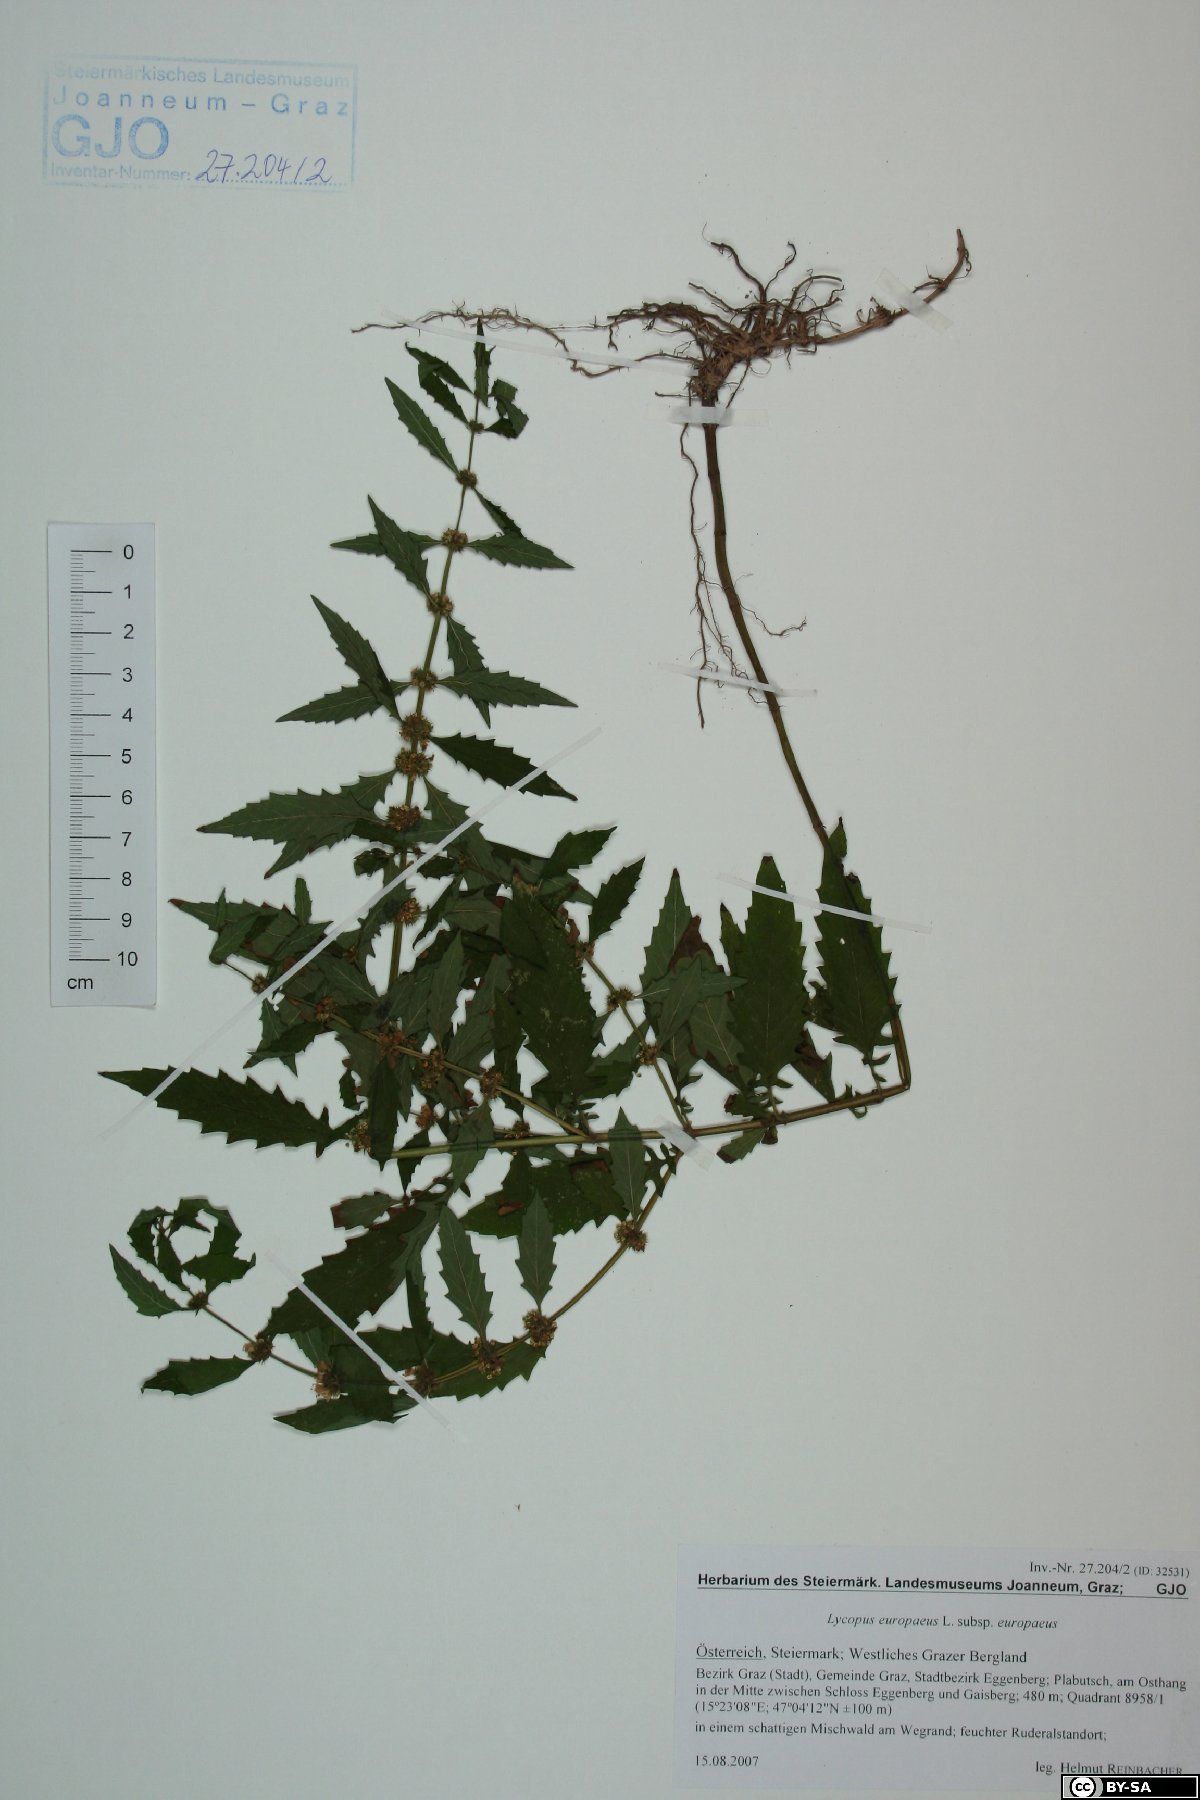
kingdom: Plantae
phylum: Tracheophyta
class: Magnoliopsida
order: Lamiales
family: Lamiaceae
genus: Lycopus
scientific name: Lycopus europaeus
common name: European bugleweed
